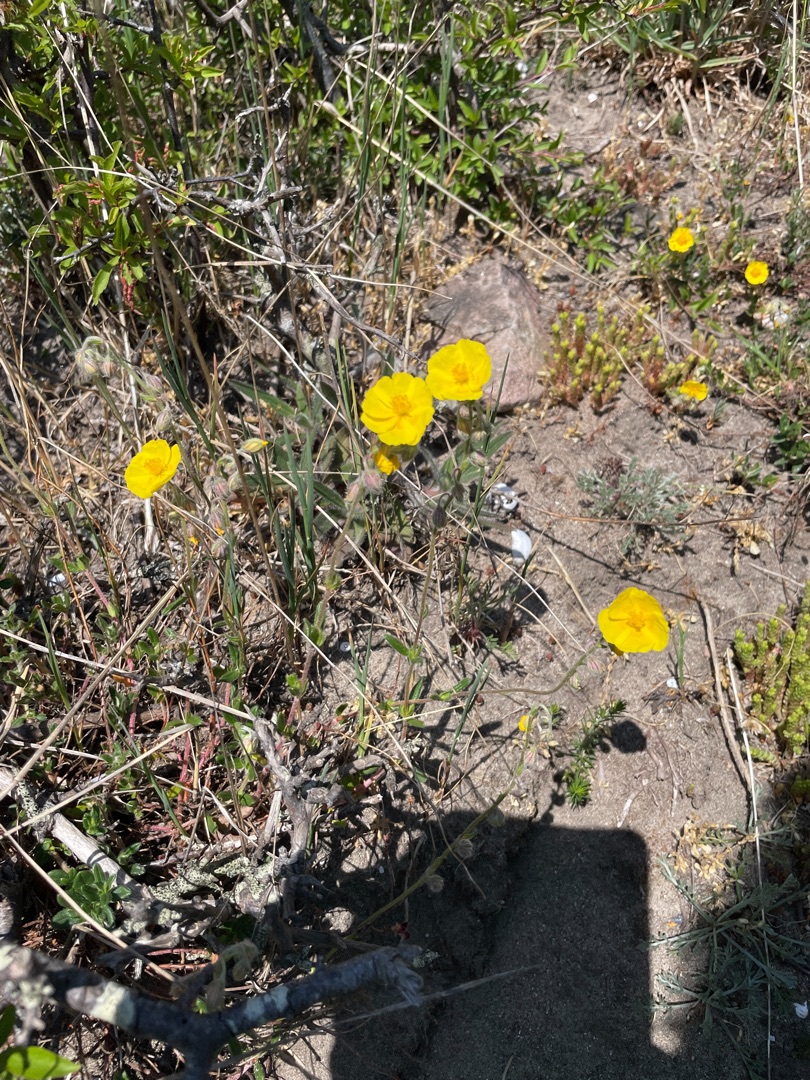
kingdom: Plantae
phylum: Tracheophyta
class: Magnoliopsida
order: Malvales
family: Cistaceae
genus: Helianthemum
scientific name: Helianthemum nummularium
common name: Soløje
